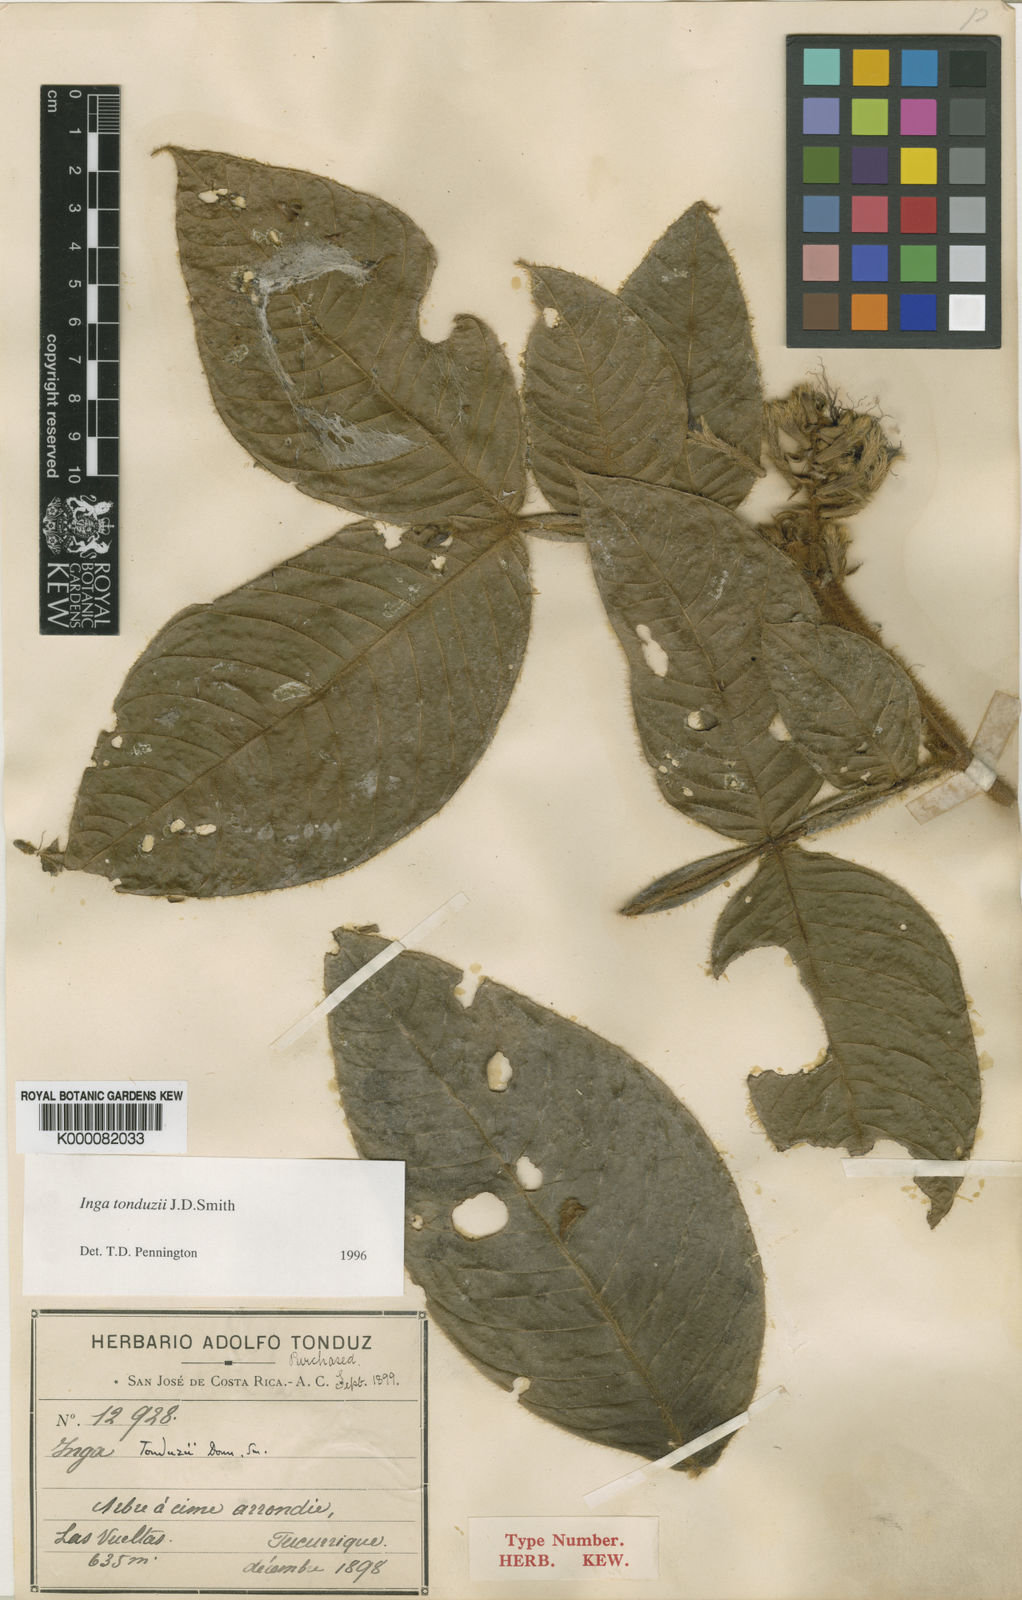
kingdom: Plantae
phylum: Tracheophyta
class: Magnoliopsida
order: Fabales
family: Fabaceae
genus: Inga
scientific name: Inga tonduzii
